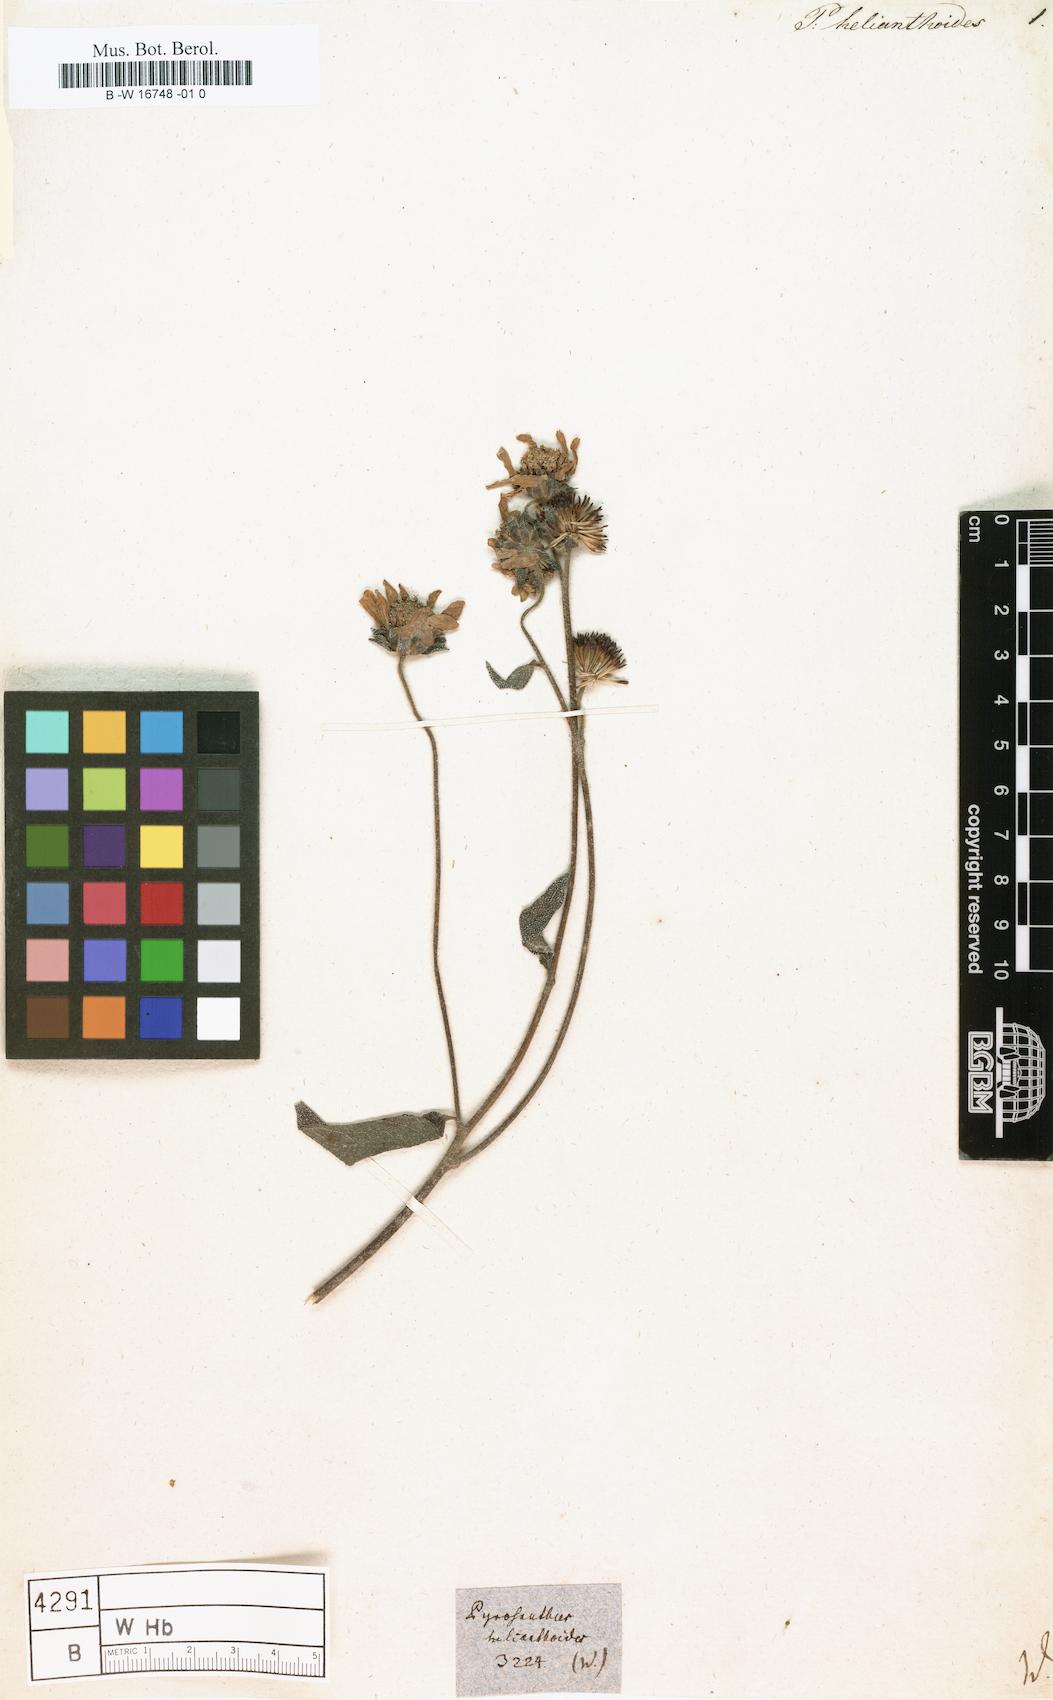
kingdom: Plantae
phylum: Tracheophyta
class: Magnoliopsida
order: Asterales
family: Asteraceae
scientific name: Asteraceae
